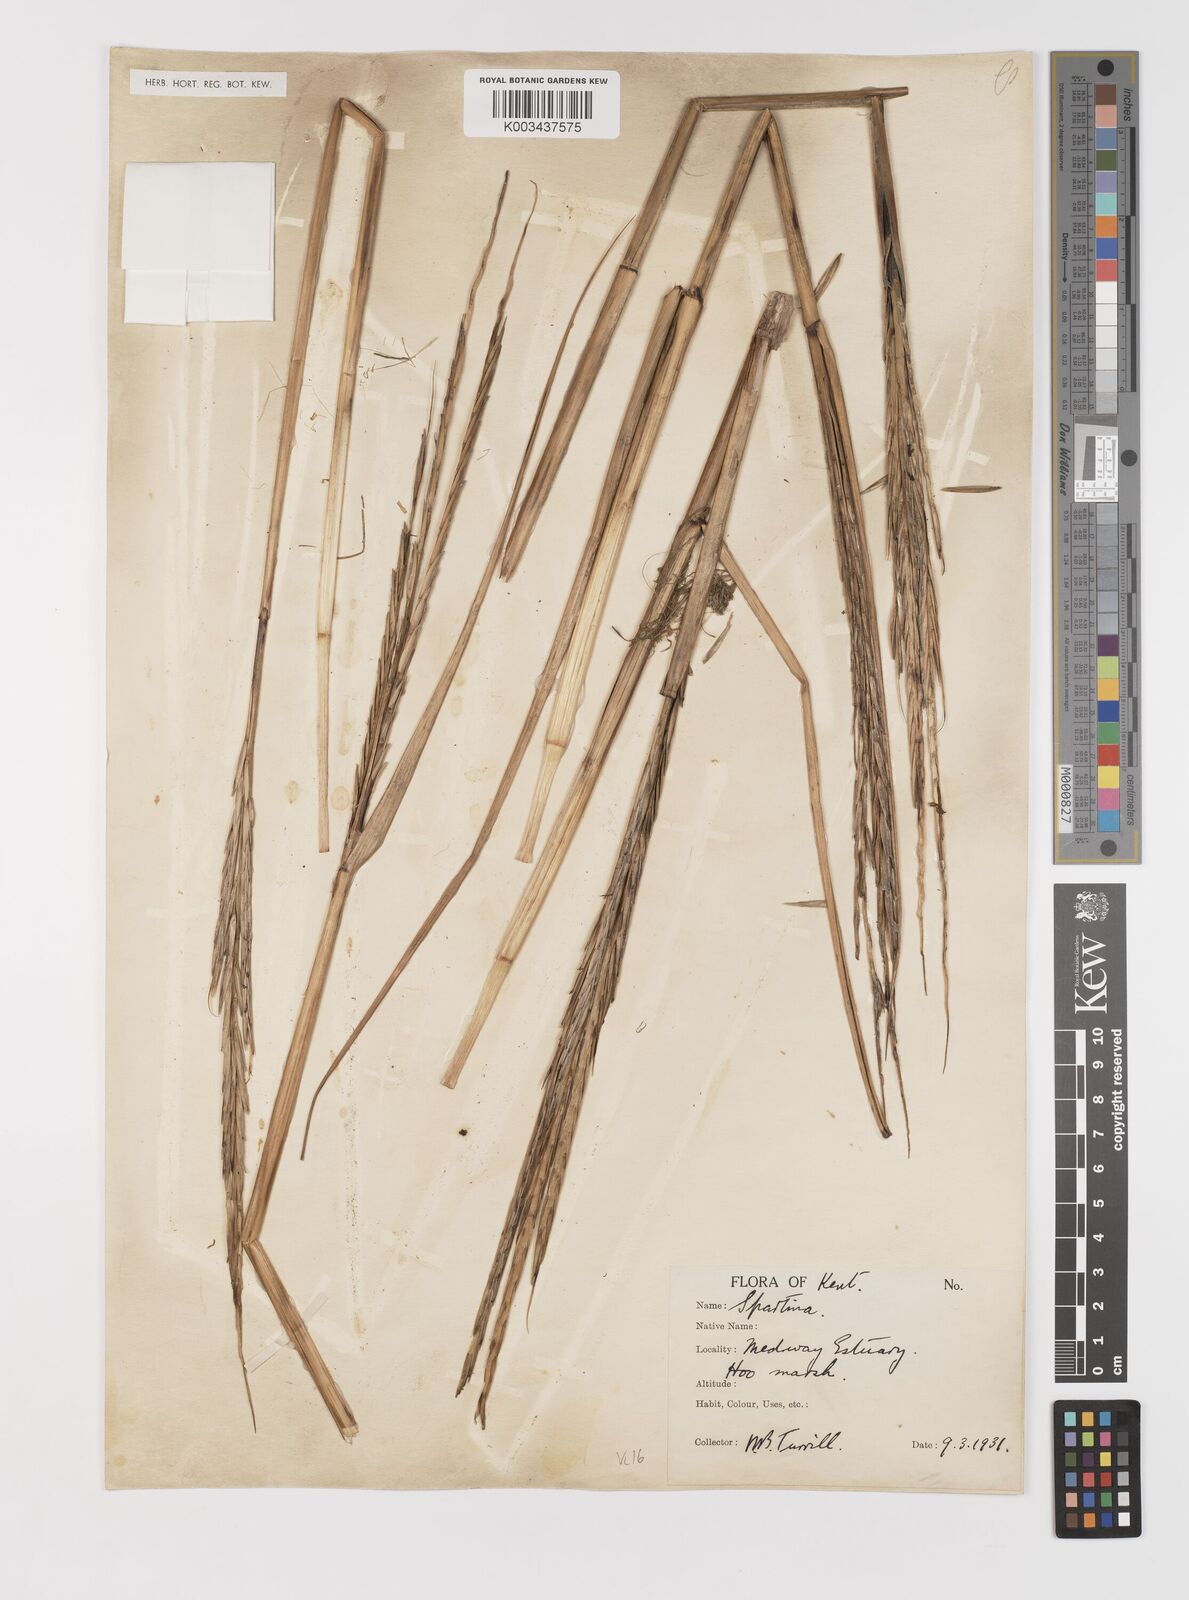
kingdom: Plantae
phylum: Tracheophyta
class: Liliopsida
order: Poales
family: Poaceae
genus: Sporobolus
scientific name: Sporobolus anglicus
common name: English cordgrass
